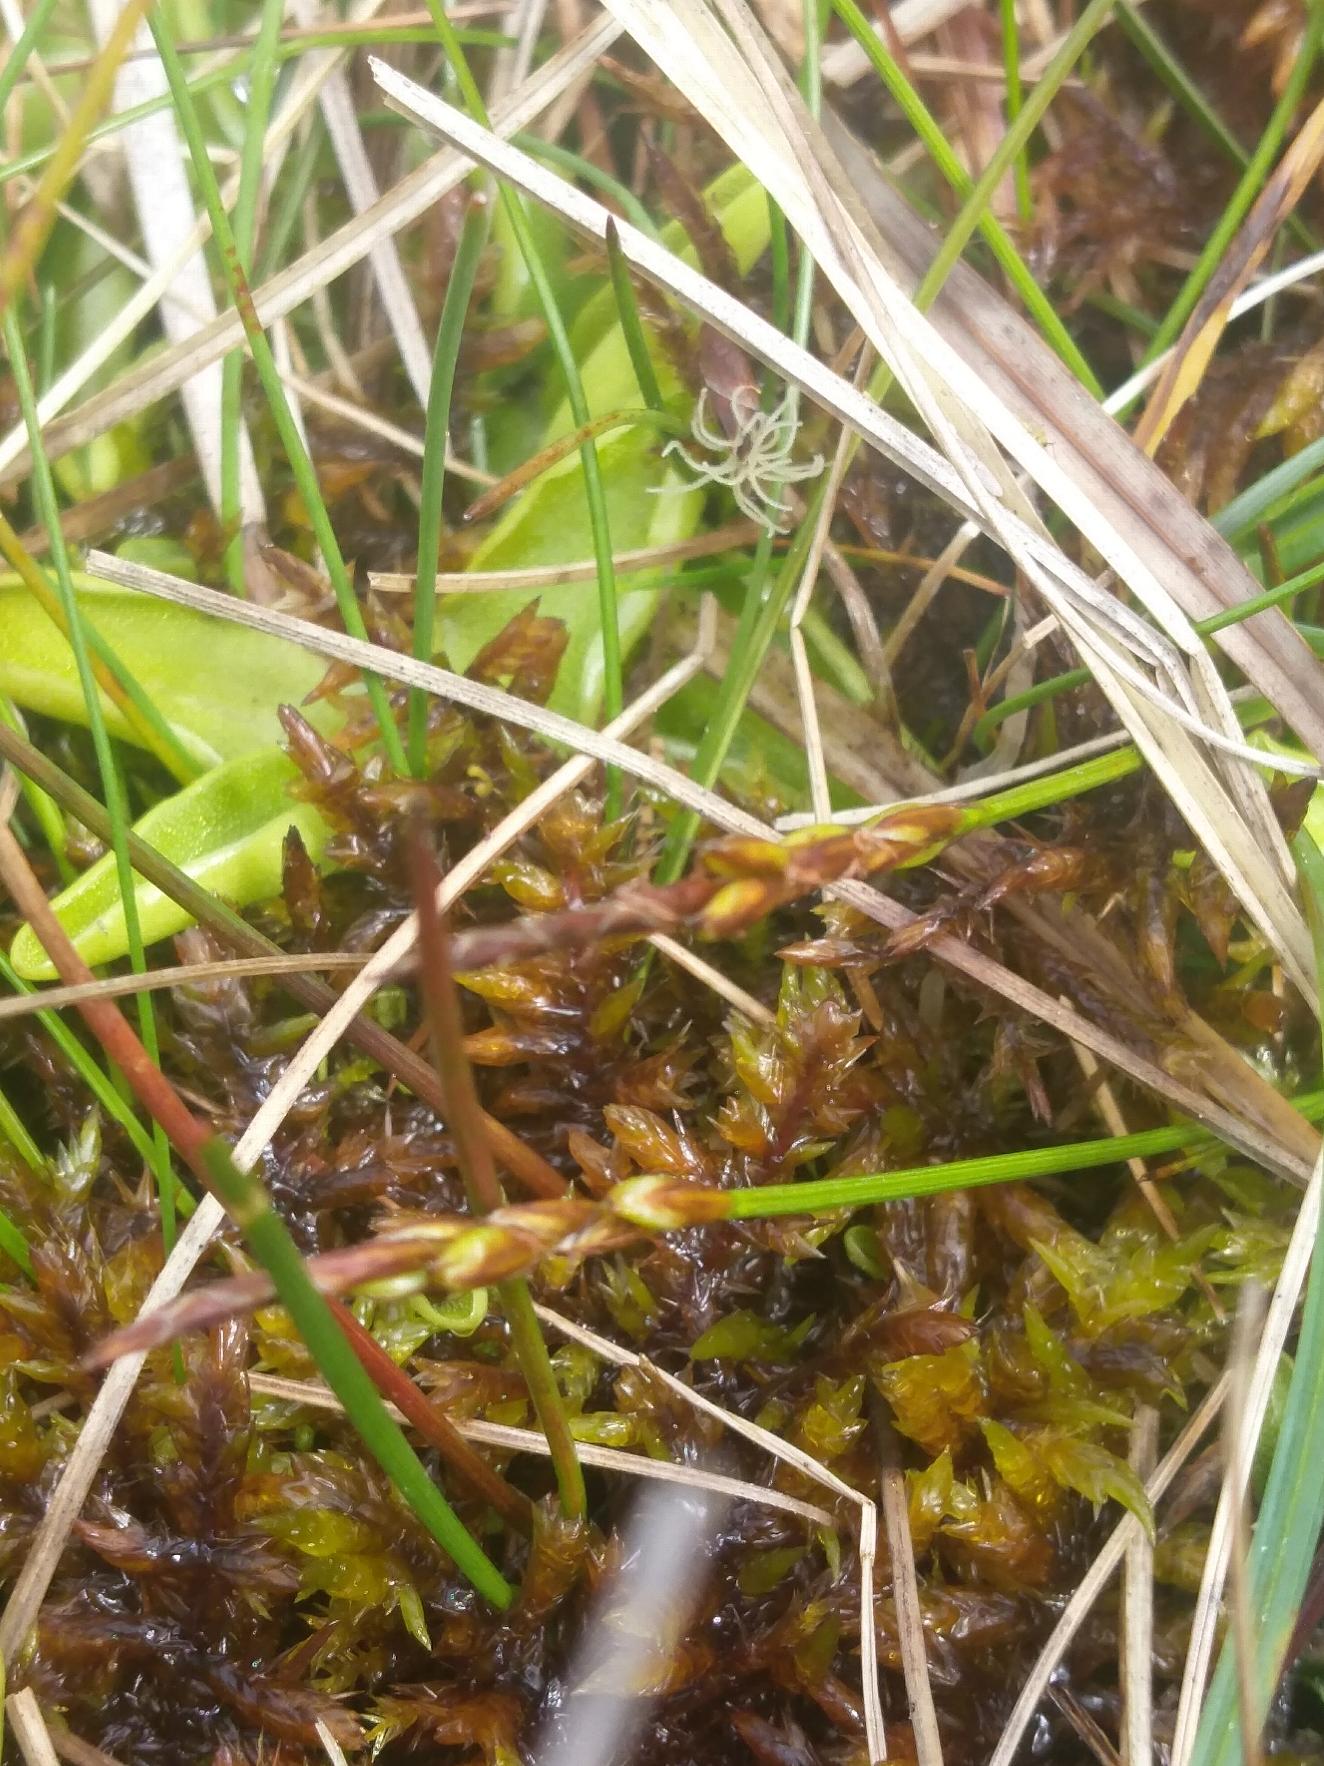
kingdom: Plantae
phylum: Tracheophyta
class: Liliopsida
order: Poales
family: Cyperaceae
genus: Carex
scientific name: Carex pulicaris
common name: Loppe-star
